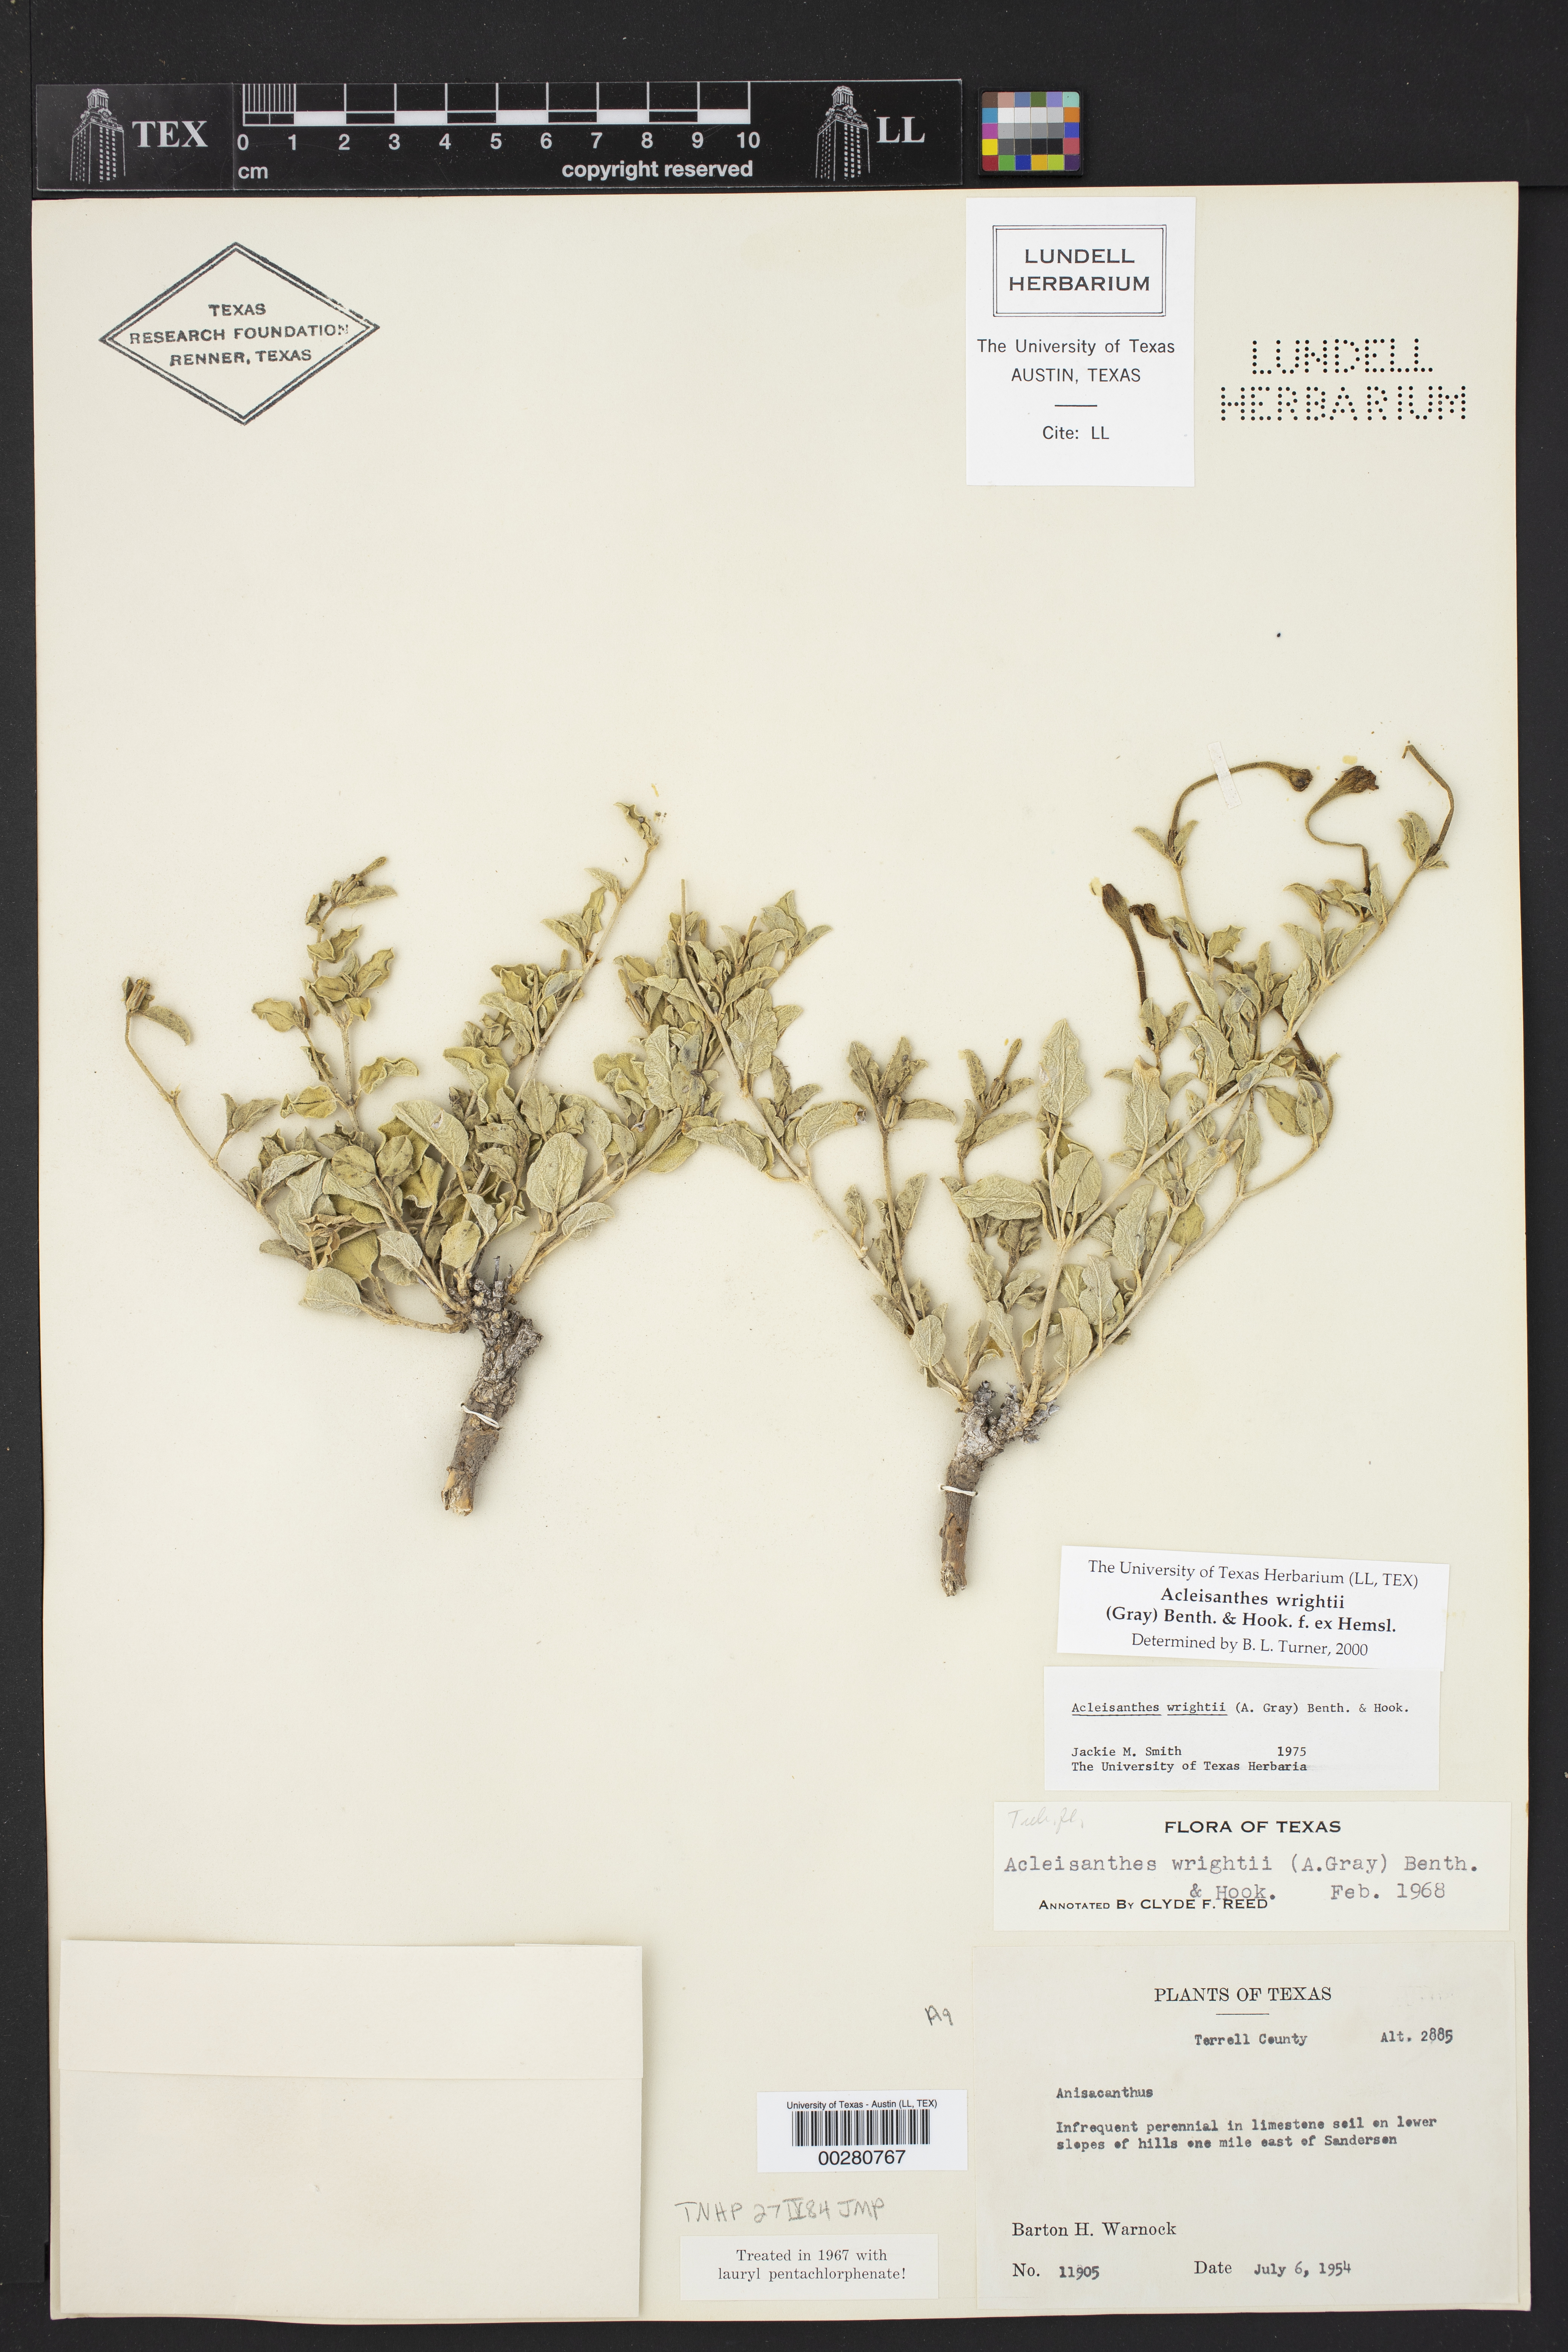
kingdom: Plantae
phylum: Tracheophyta
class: Magnoliopsida
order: Caryophyllales
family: Nyctaginaceae
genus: Acleisanthes
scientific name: Acleisanthes wrightii
